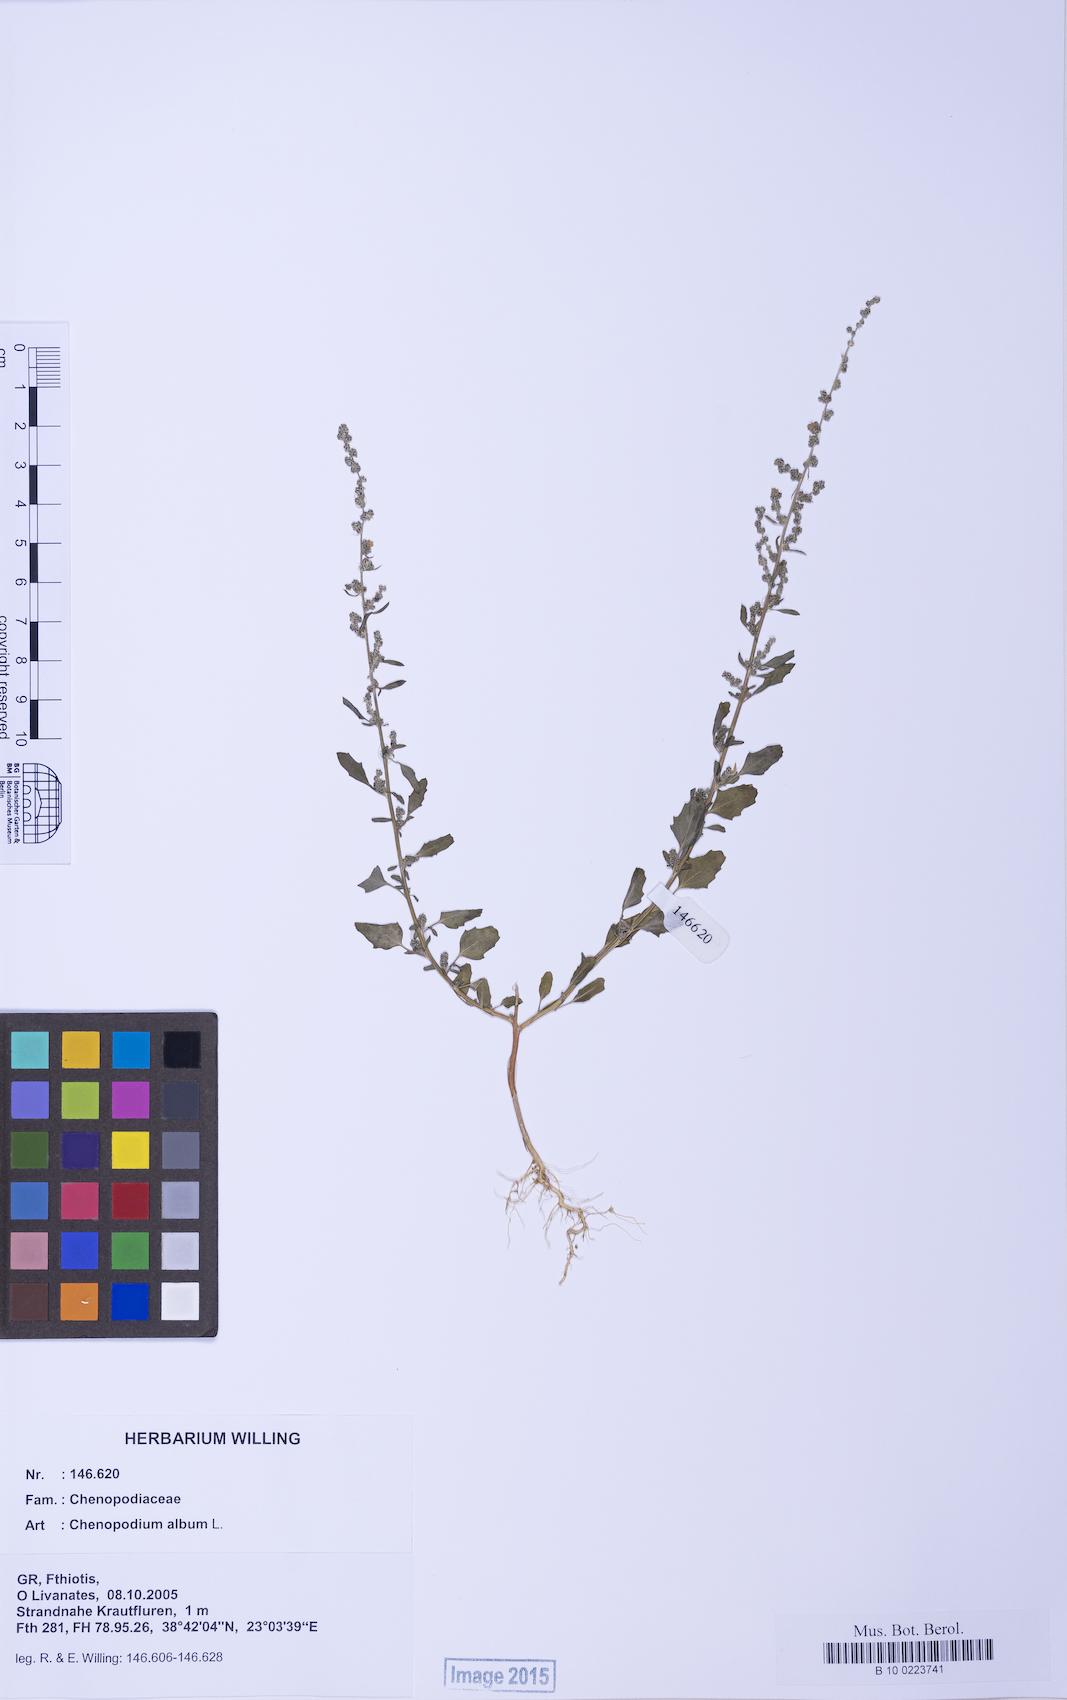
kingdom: Plantae
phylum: Tracheophyta
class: Magnoliopsida
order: Caryophyllales
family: Amaranthaceae
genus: Chenopodium
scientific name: Chenopodium album
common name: Fat-hen
